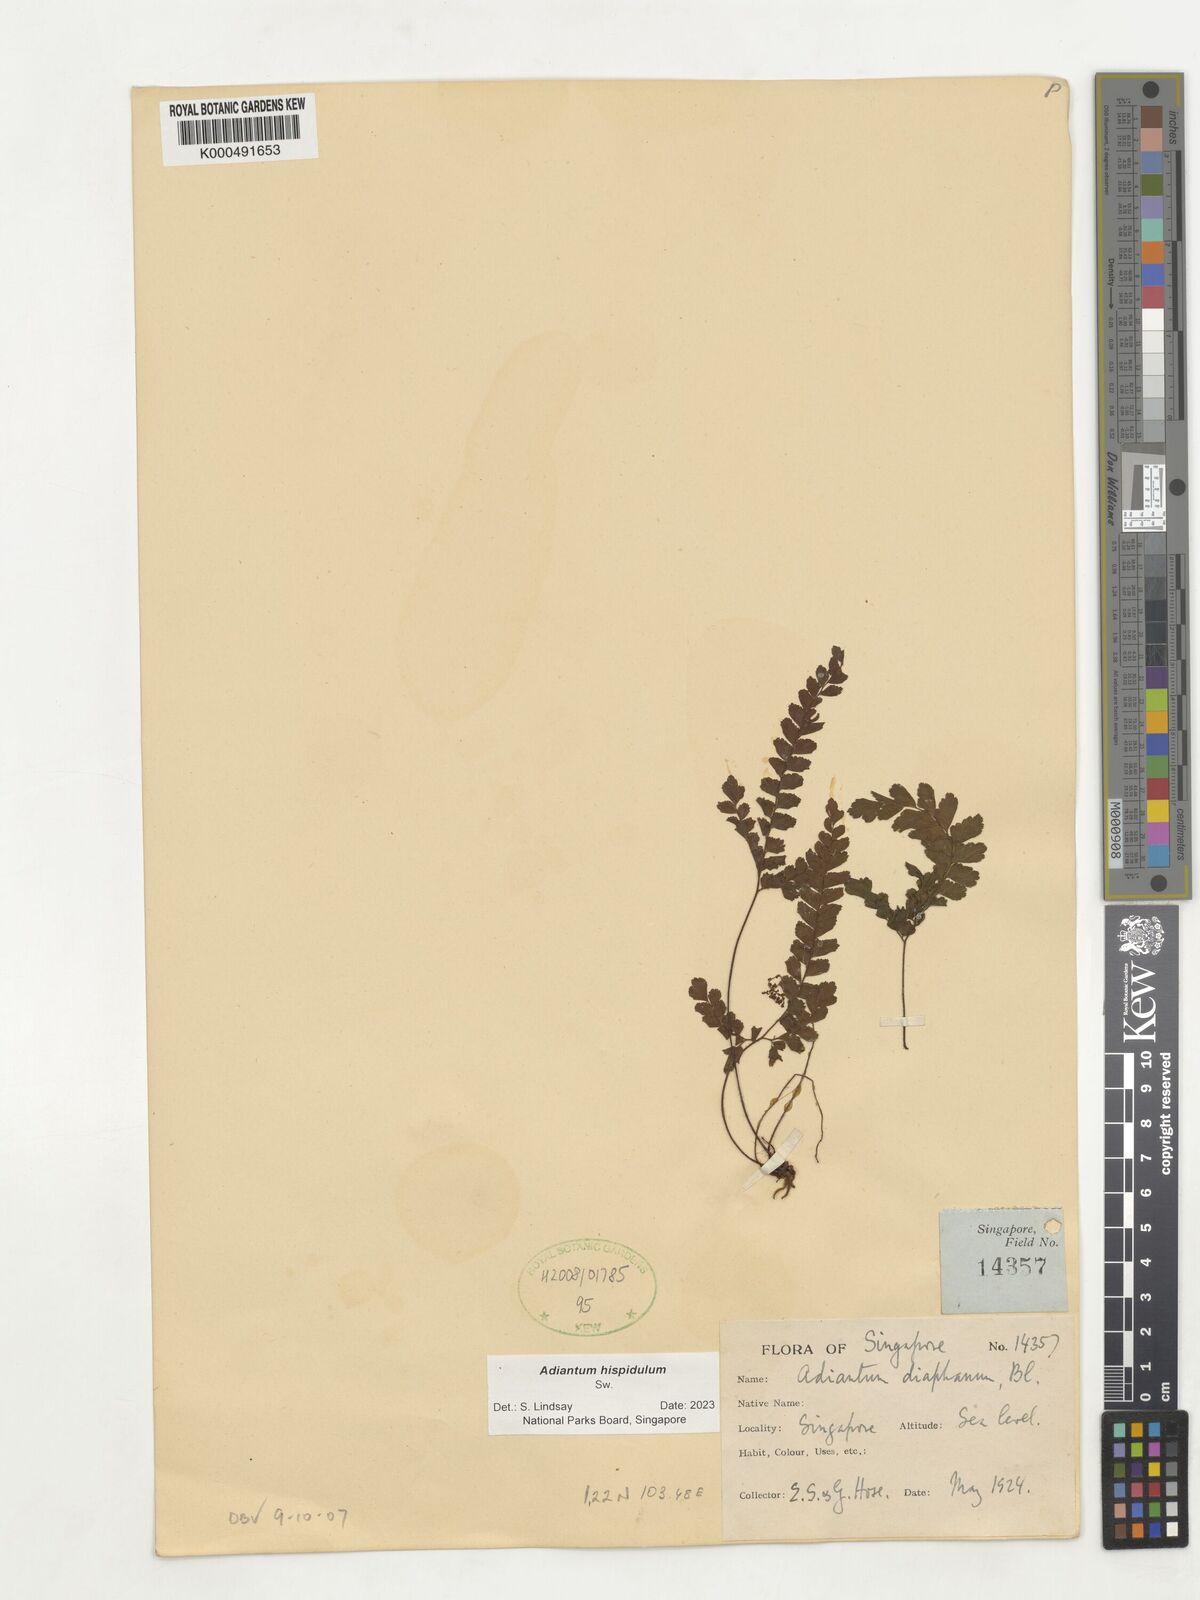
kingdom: Plantae
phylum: Tracheophyta
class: Polypodiopsida
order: Polypodiales
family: Pteridaceae
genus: Adiantum
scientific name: Adiantum hispidulum
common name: Rough maidenhair
